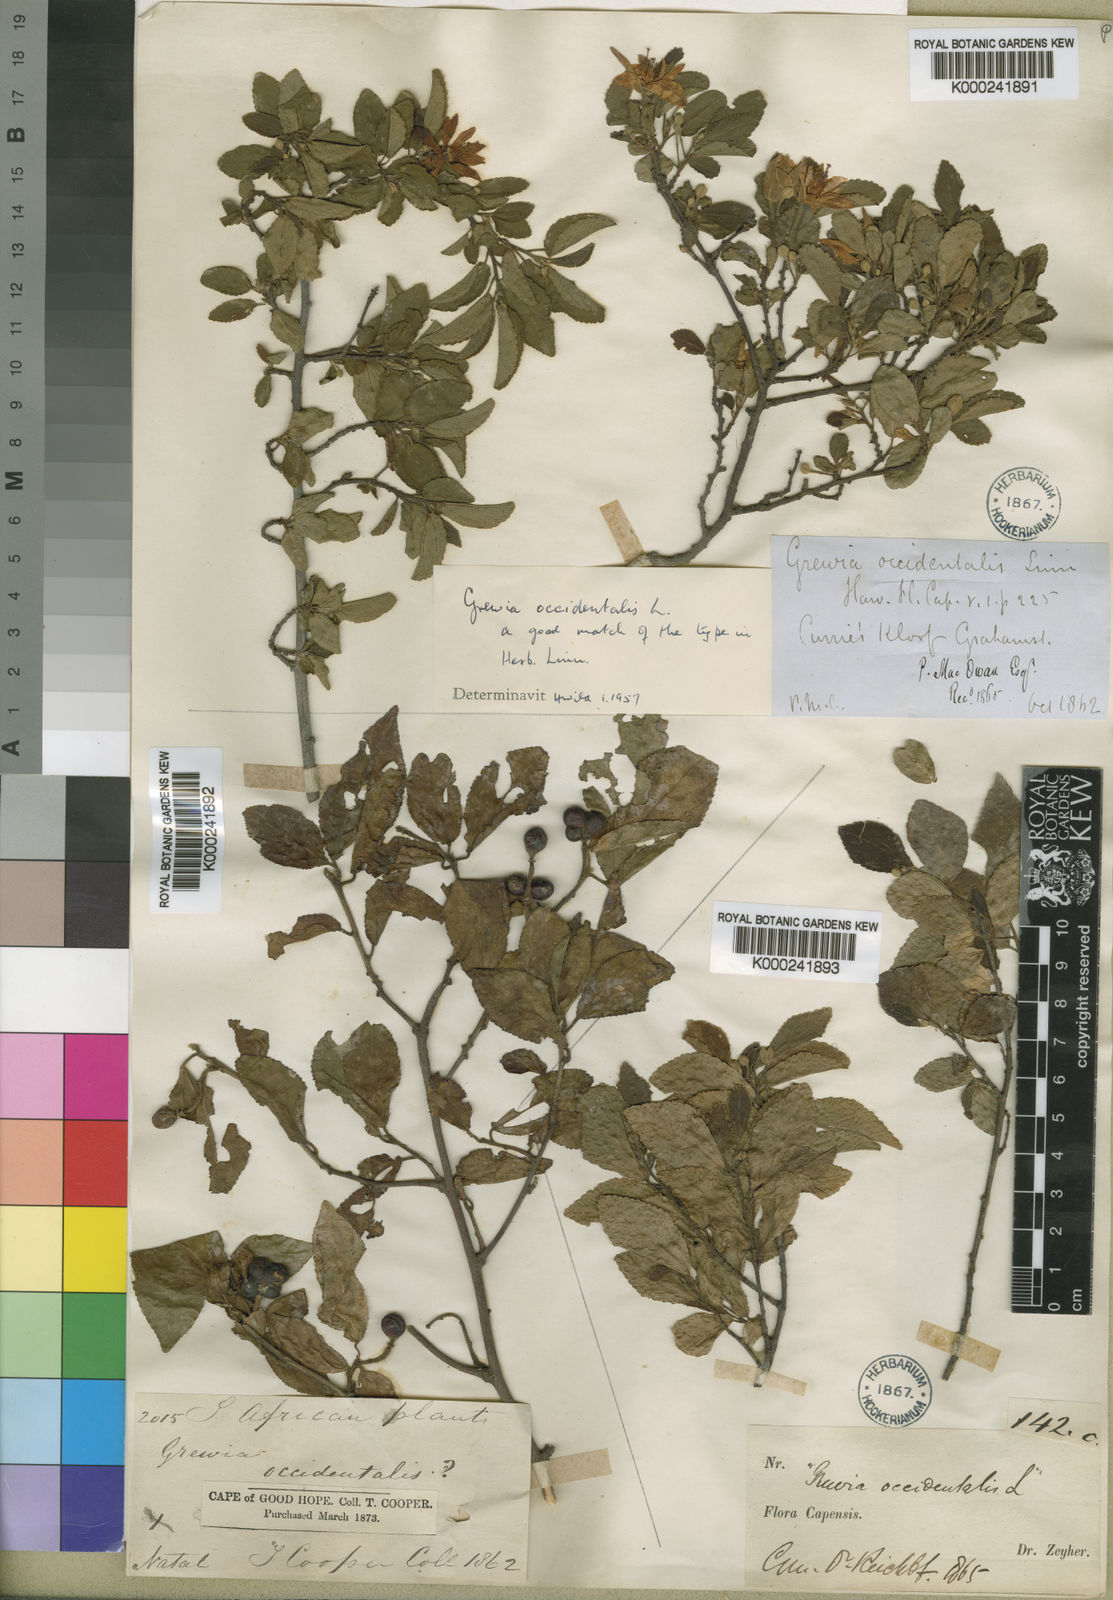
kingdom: Plantae
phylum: Tracheophyta
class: Magnoliopsida
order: Malvales
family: Malvaceae
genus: Grewia
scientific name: Grewia occidentalis
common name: Crossberry
